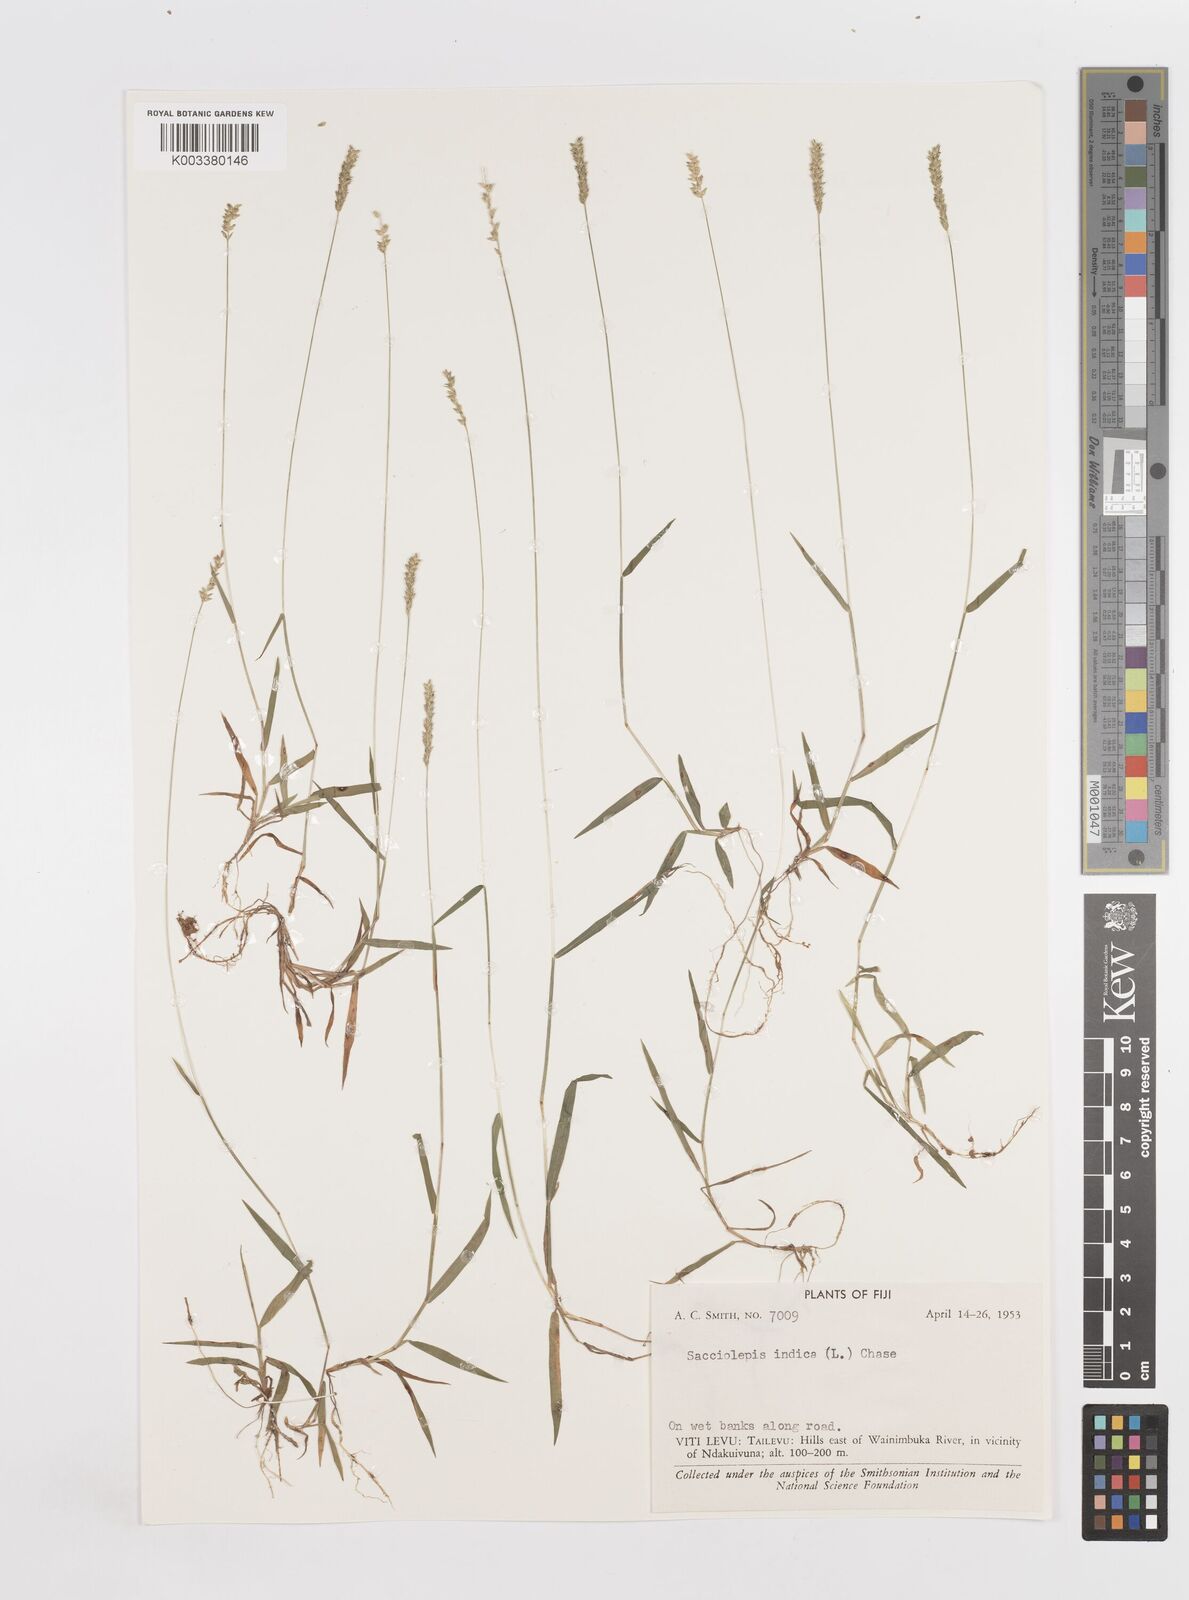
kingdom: Plantae
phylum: Tracheophyta
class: Liliopsida
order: Poales
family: Poaceae
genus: Sacciolepis
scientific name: Sacciolepis indica
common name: Glenwoodgrass
